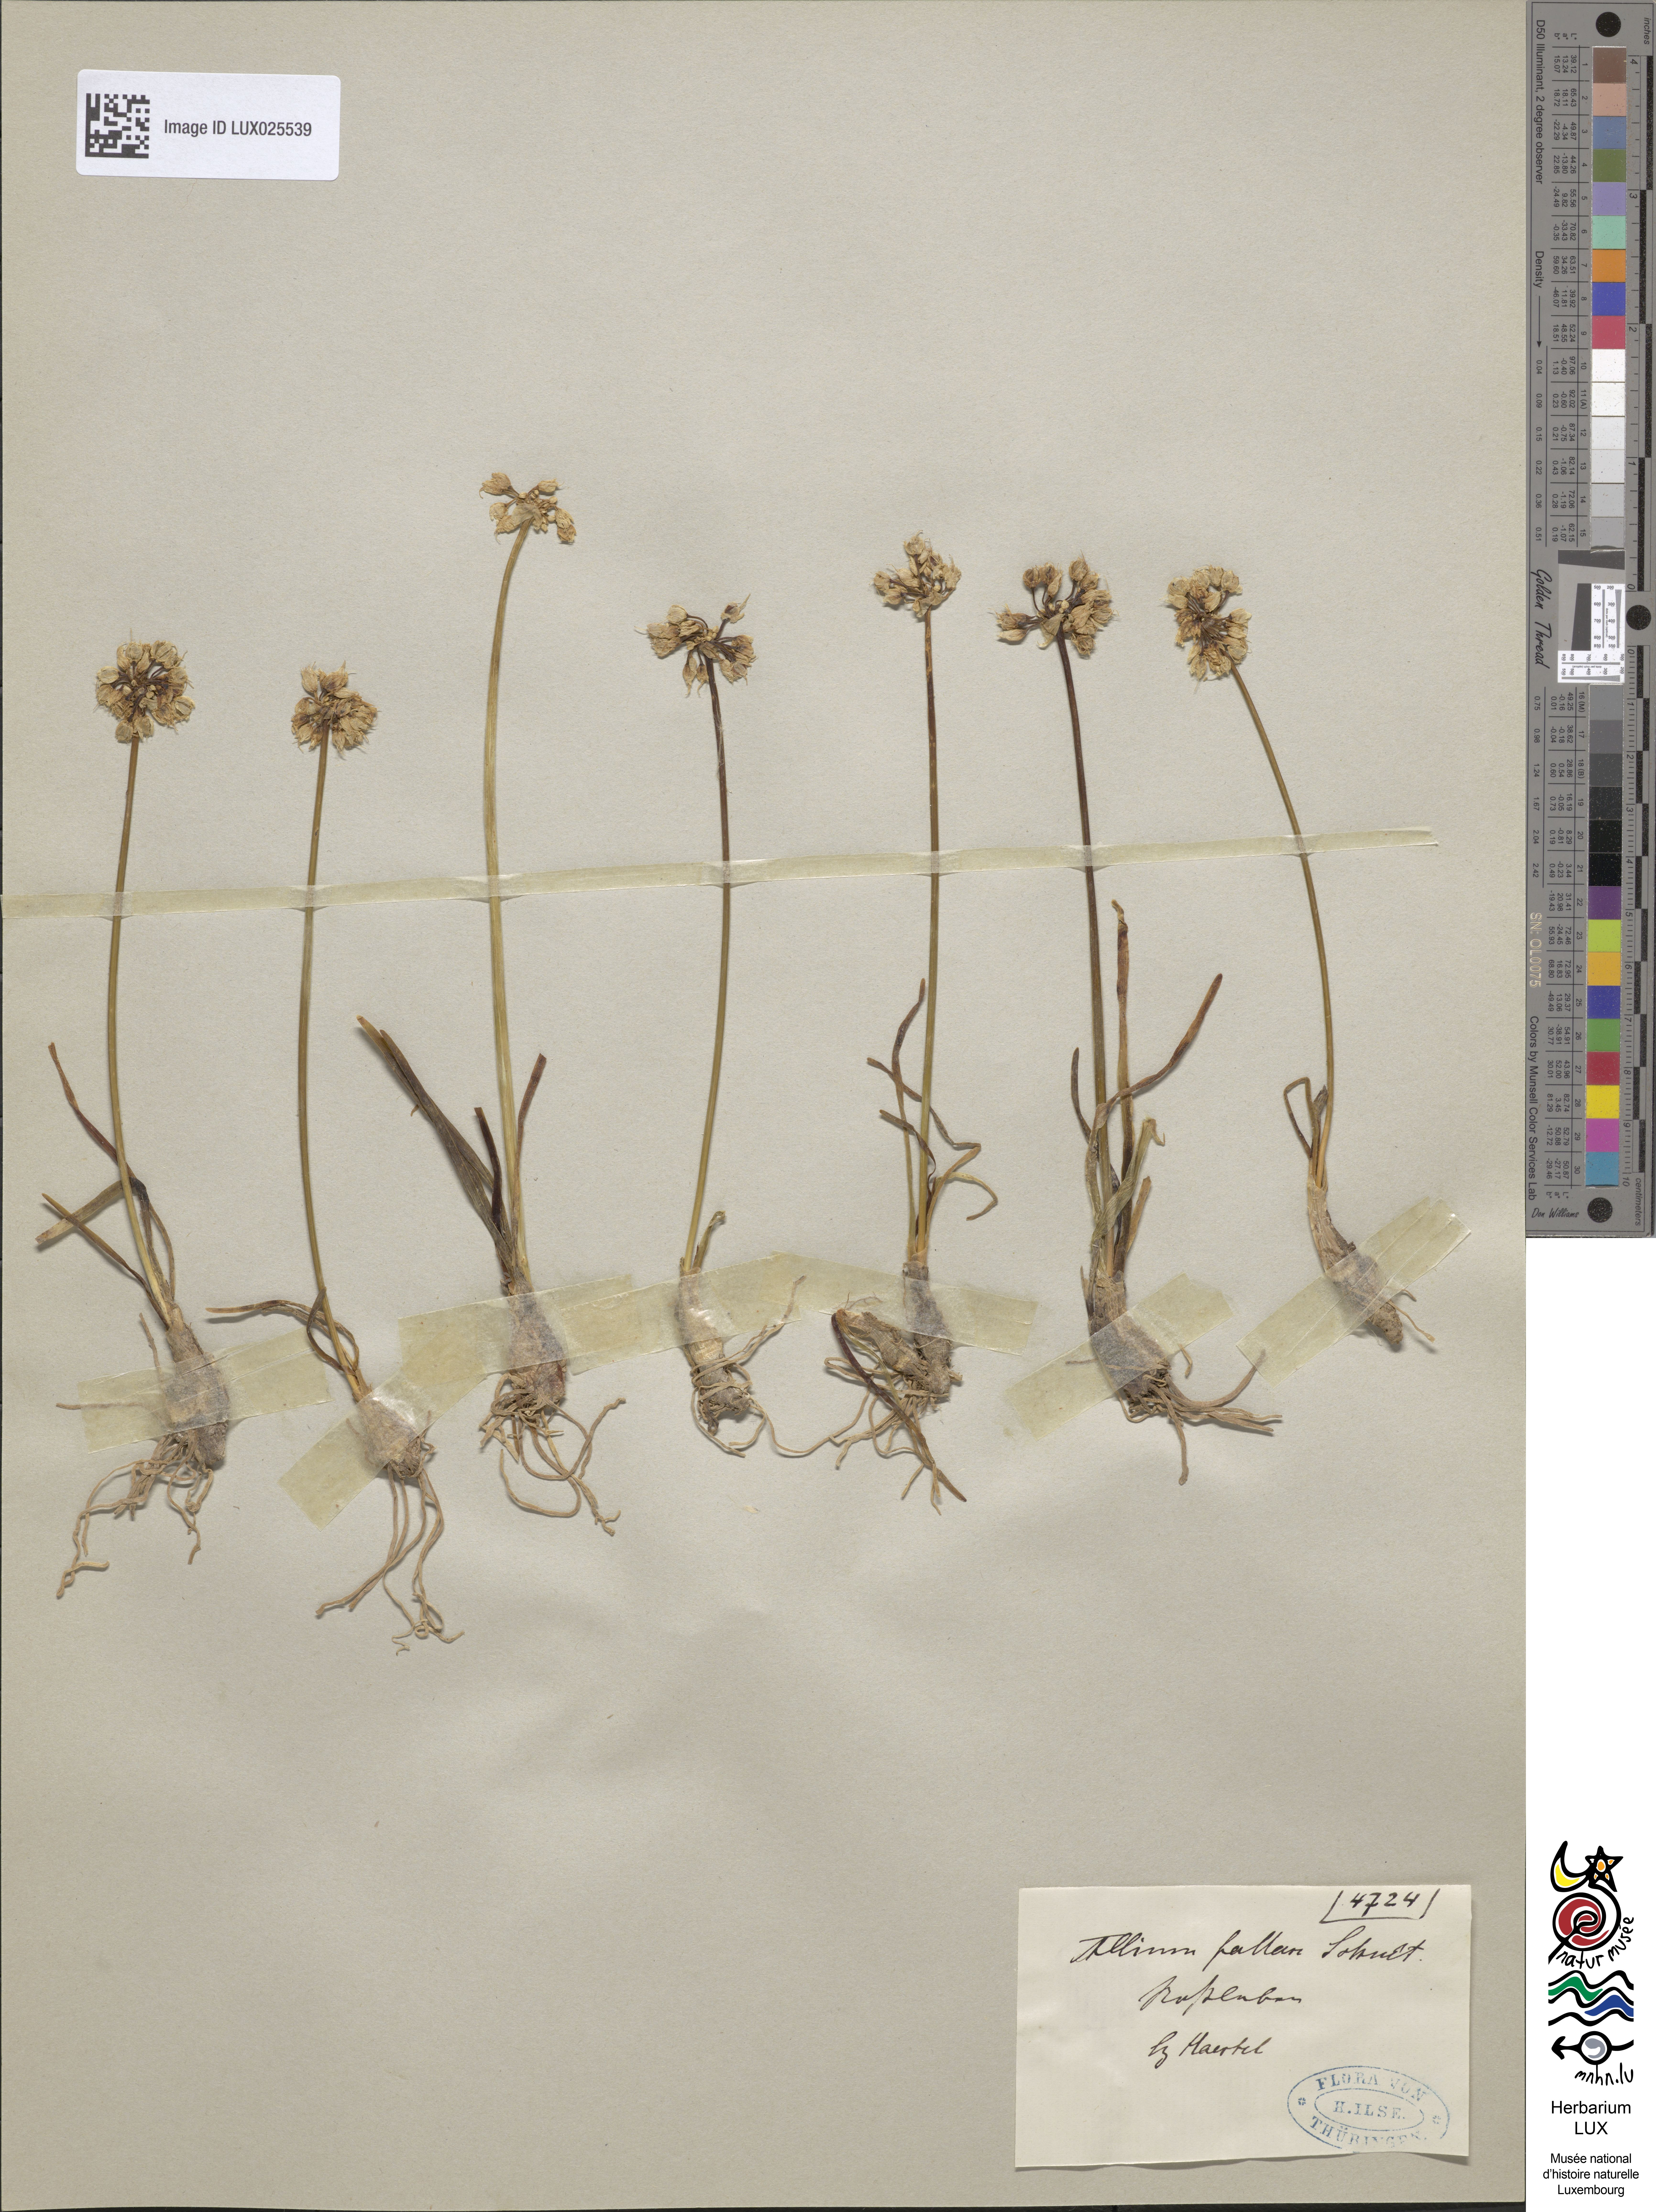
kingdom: Plantae
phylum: Tracheophyta
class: Liliopsida
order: Asparagales
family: Amaryllidaceae
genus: Allium
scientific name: Allium lusitanicum
